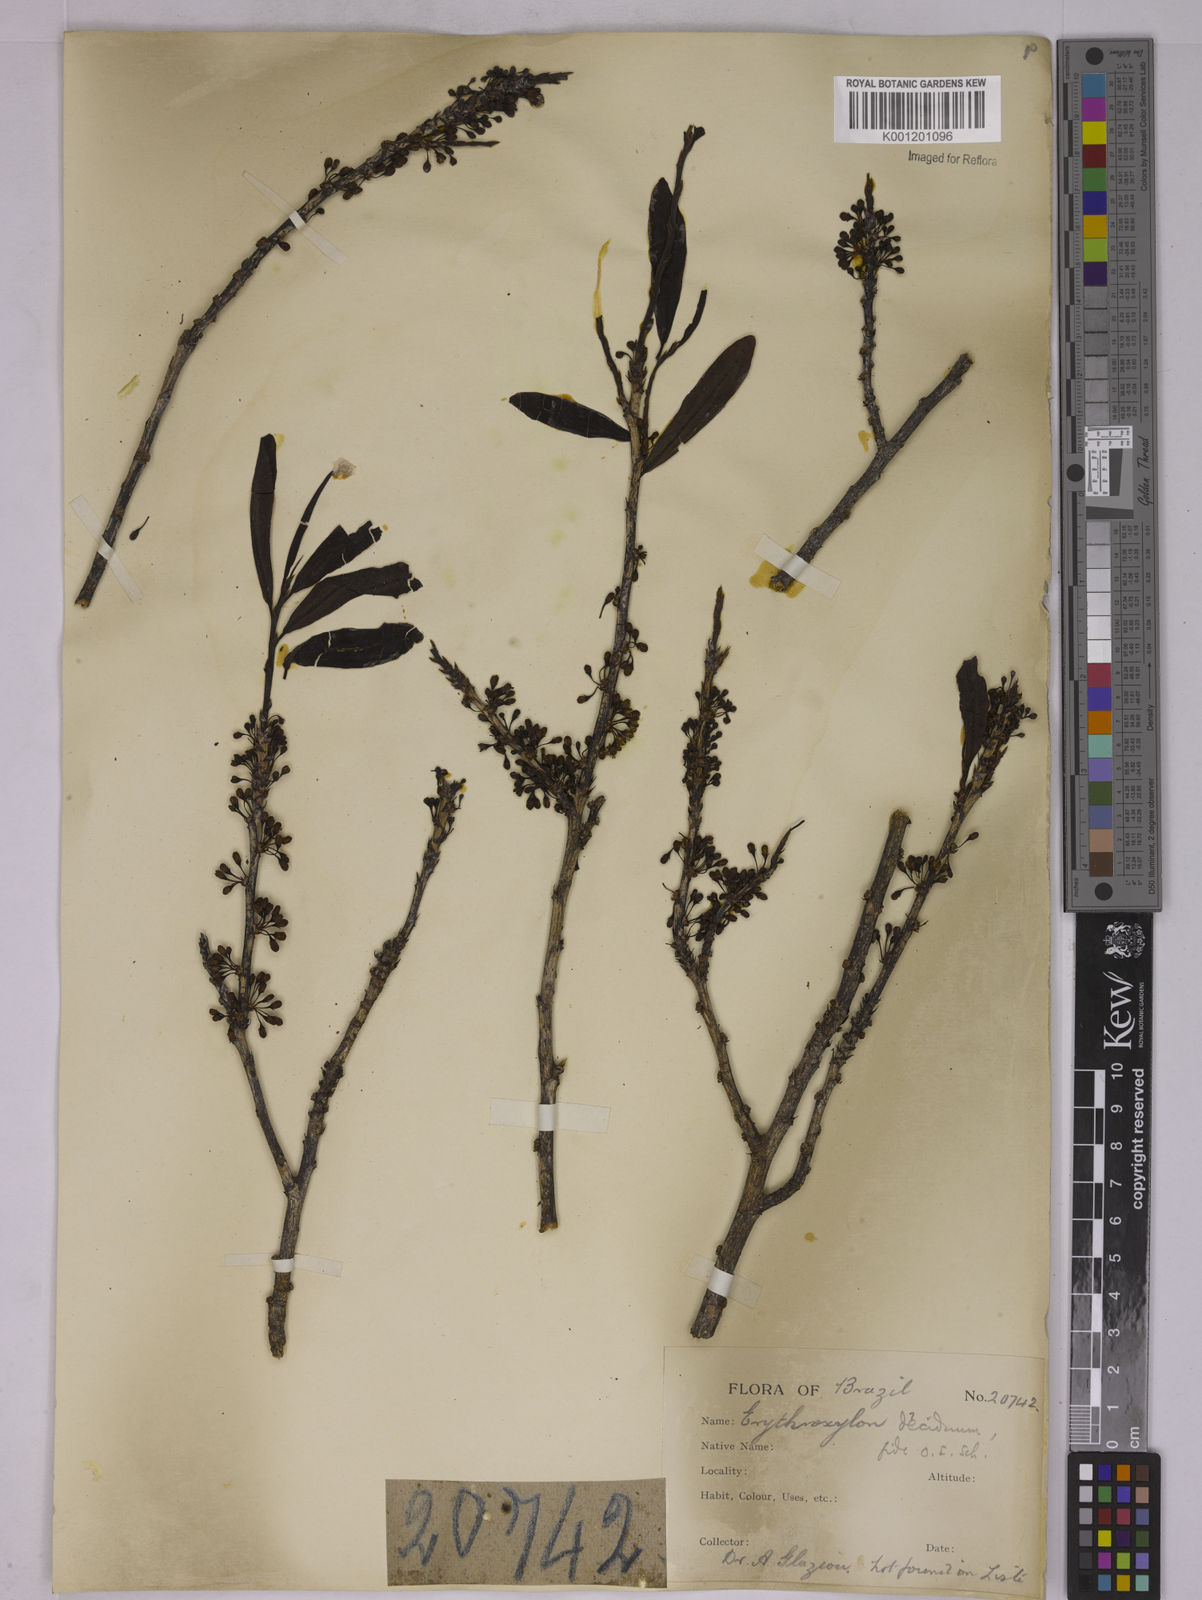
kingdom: Plantae
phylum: Tracheophyta
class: Magnoliopsida
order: Malpighiales
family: Erythroxylaceae
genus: Erythroxylum
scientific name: Erythroxylum deciduum
